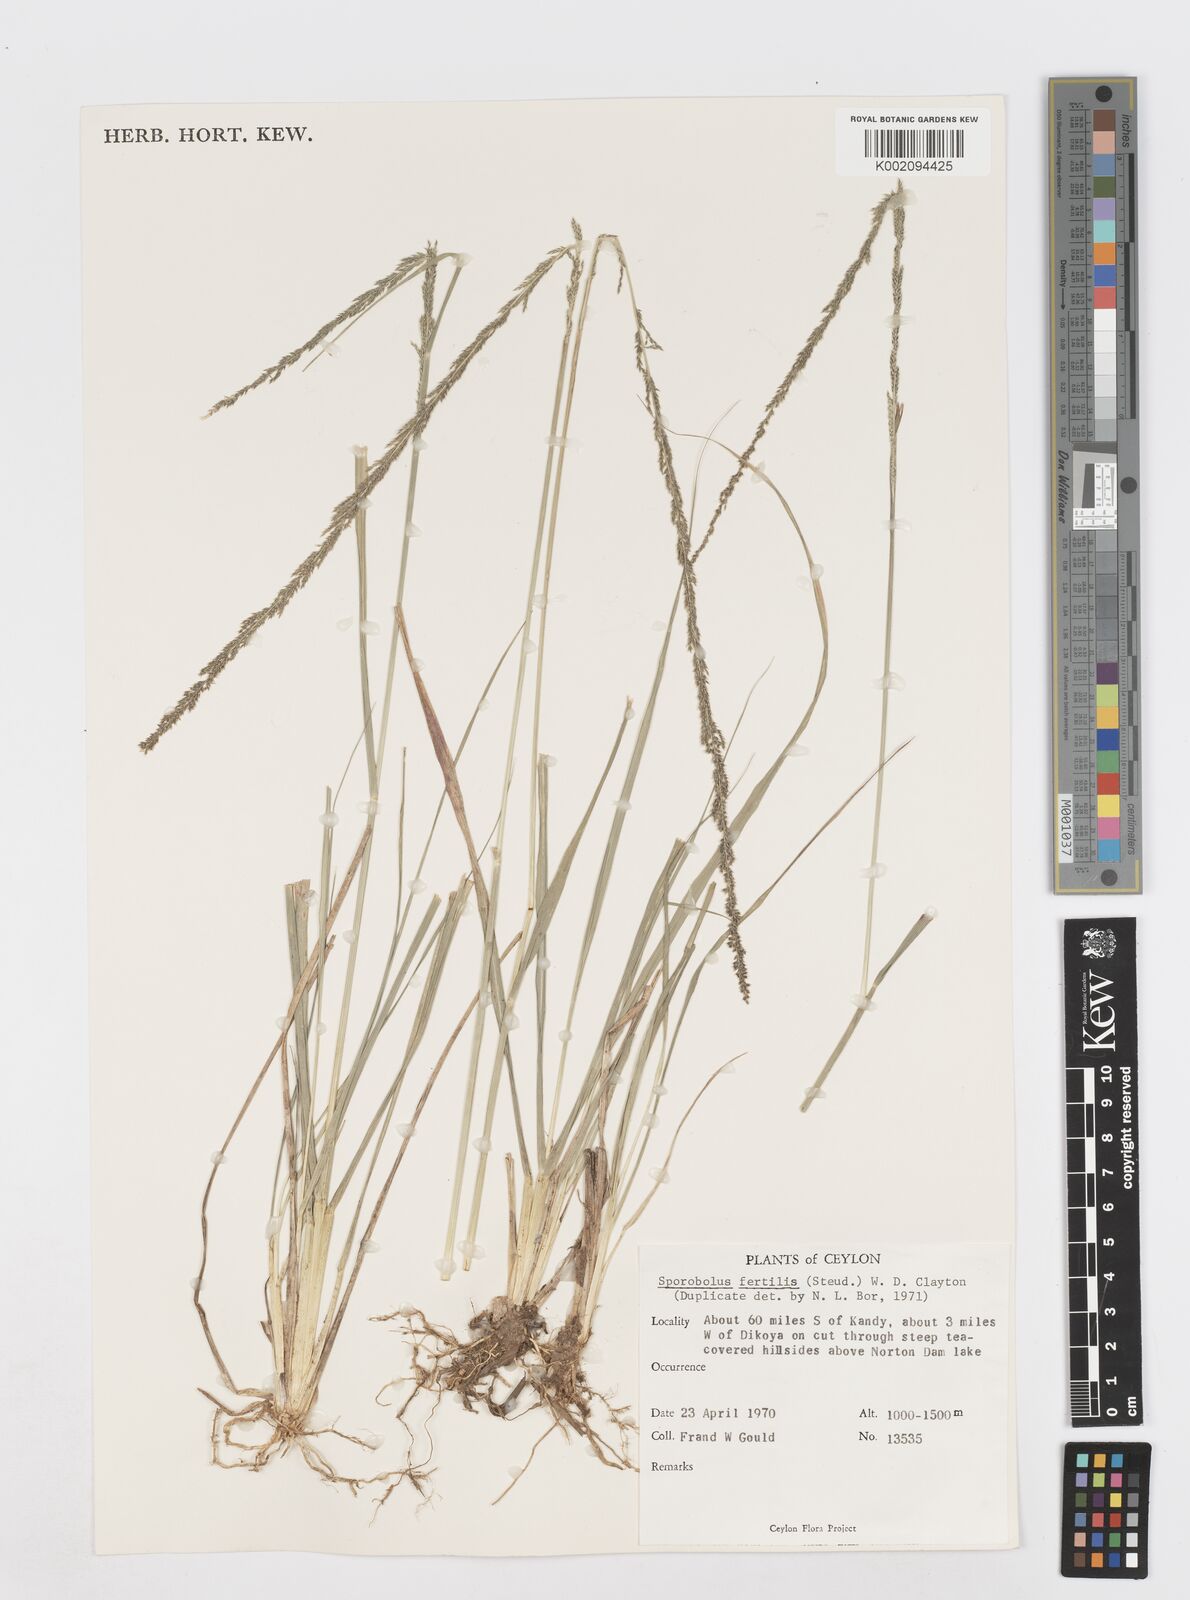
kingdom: Plantae
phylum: Tracheophyta
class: Liliopsida
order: Poales
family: Poaceae
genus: Sporobolus
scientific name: Sporobolus fertilis
